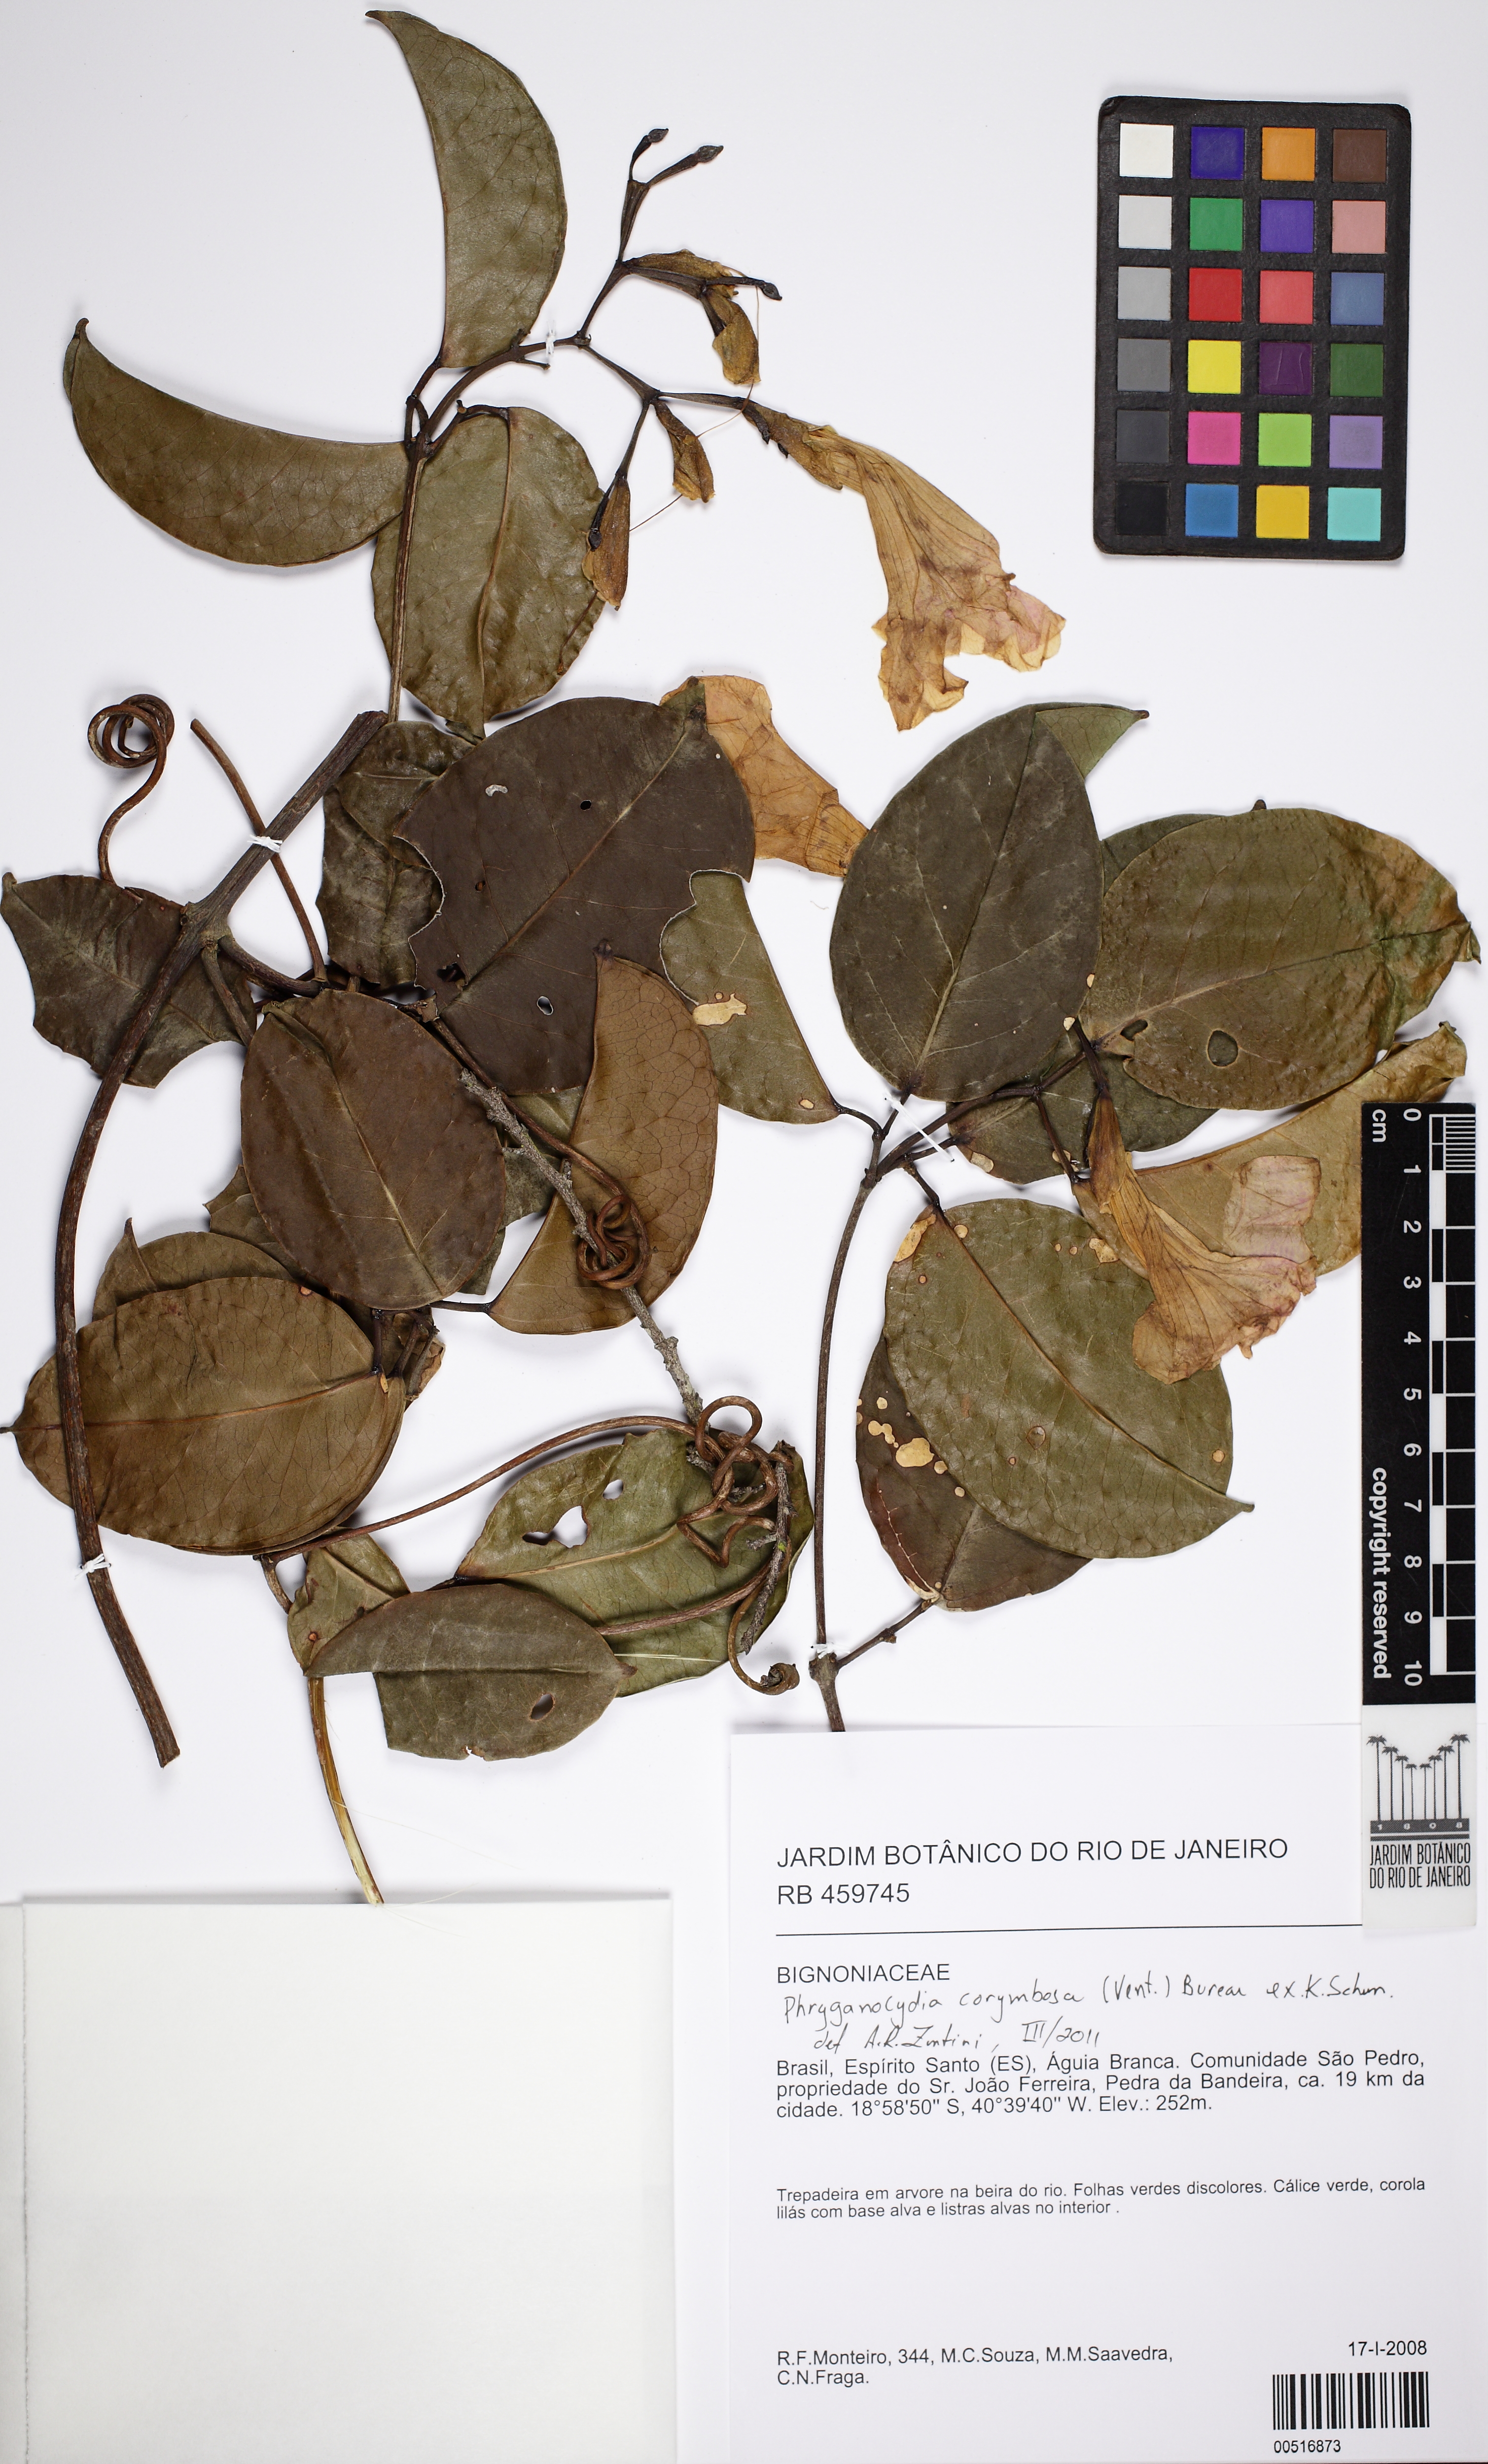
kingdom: Plantae
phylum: Tracheophyta
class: Magnoliopsida
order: Lamiales
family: Bignoniaceae
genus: Bignonia
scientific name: Bignonia corymbosa
